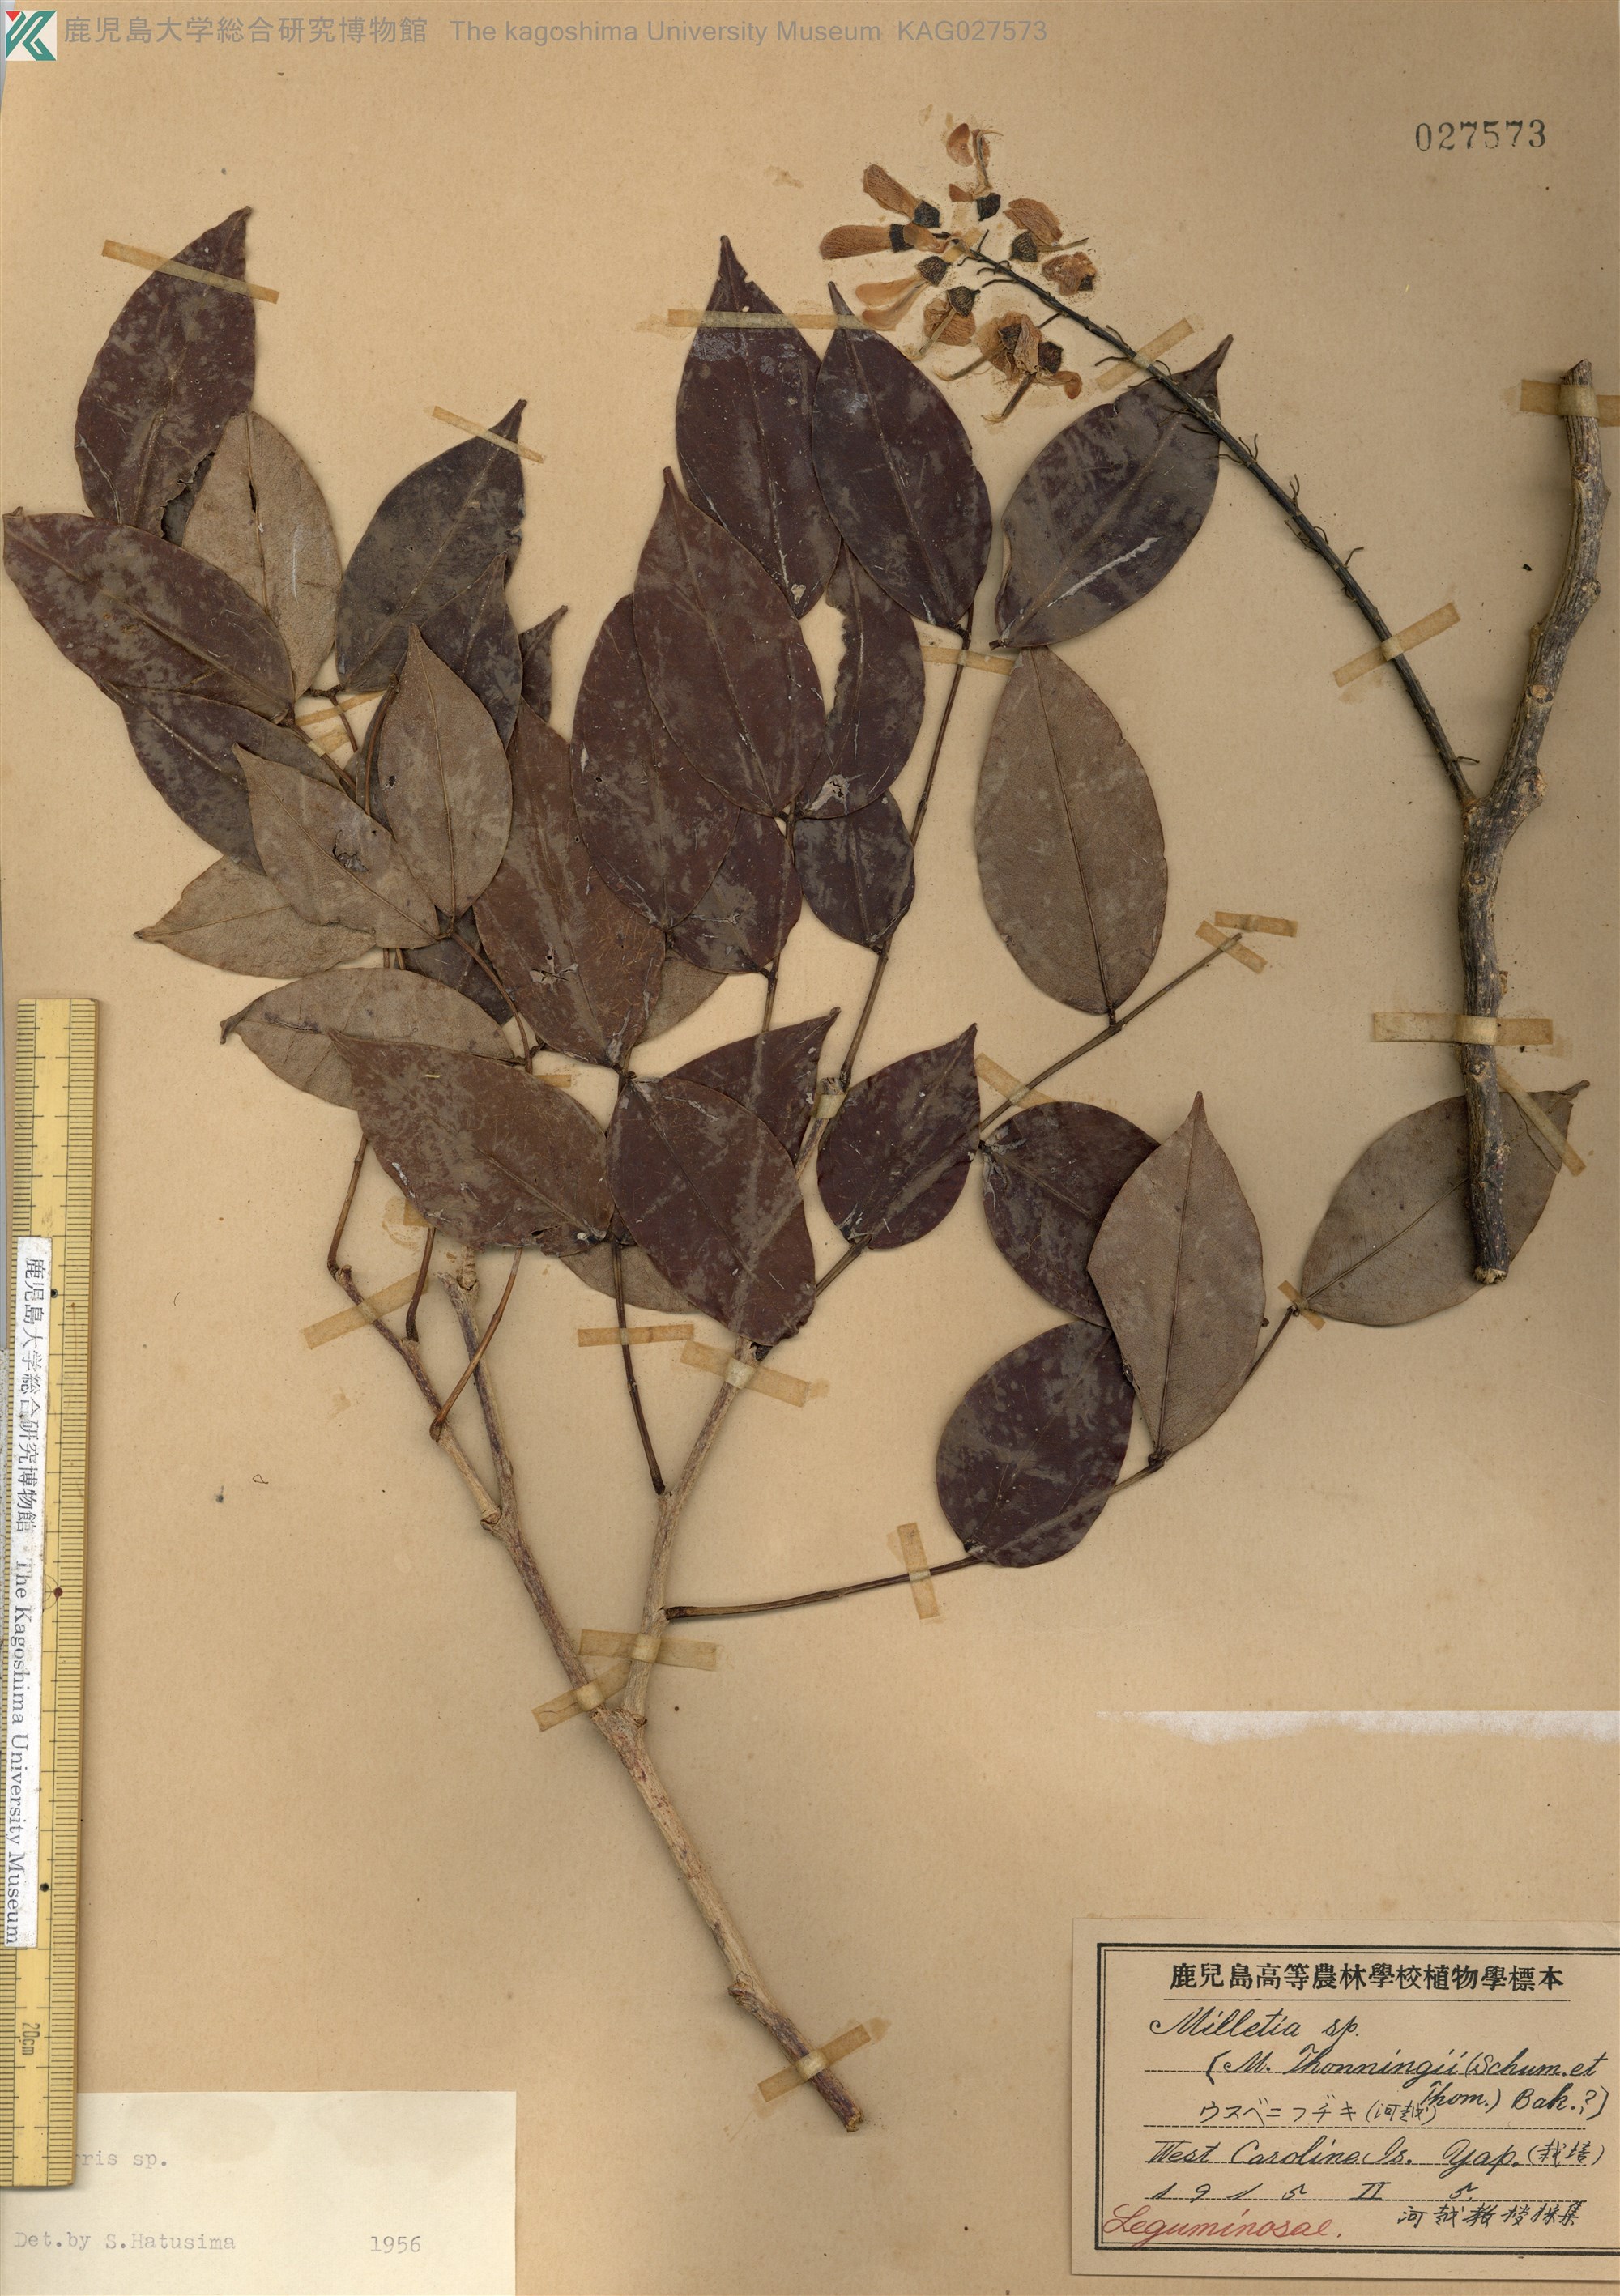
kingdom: Plantae
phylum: Tracheophyta
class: Magnoliopsida
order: Fabales
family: Fabaceae
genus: Derris
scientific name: Derris
